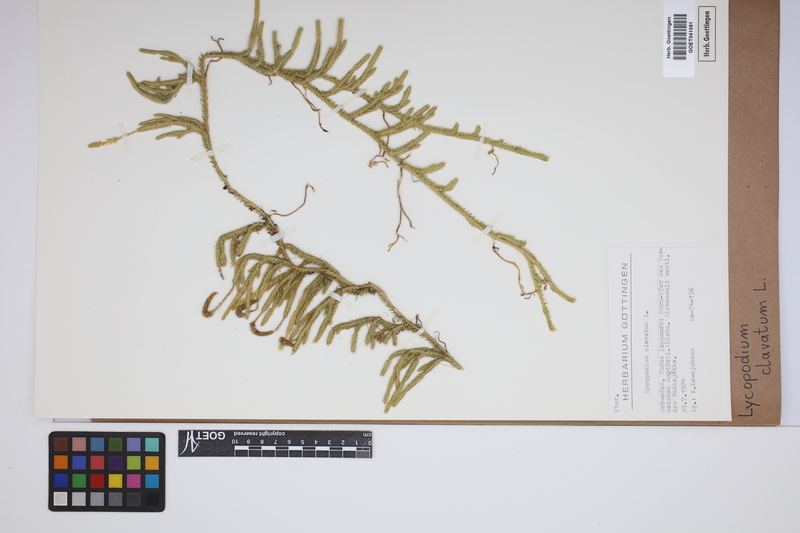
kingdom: Plantae
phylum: Tracheophyta
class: Lycopodiopsida
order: Lycopodiales
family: Lycopodiaceae
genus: Lycopodium
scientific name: Lycopodium clavatum
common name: Stag's-horn clubmoss
